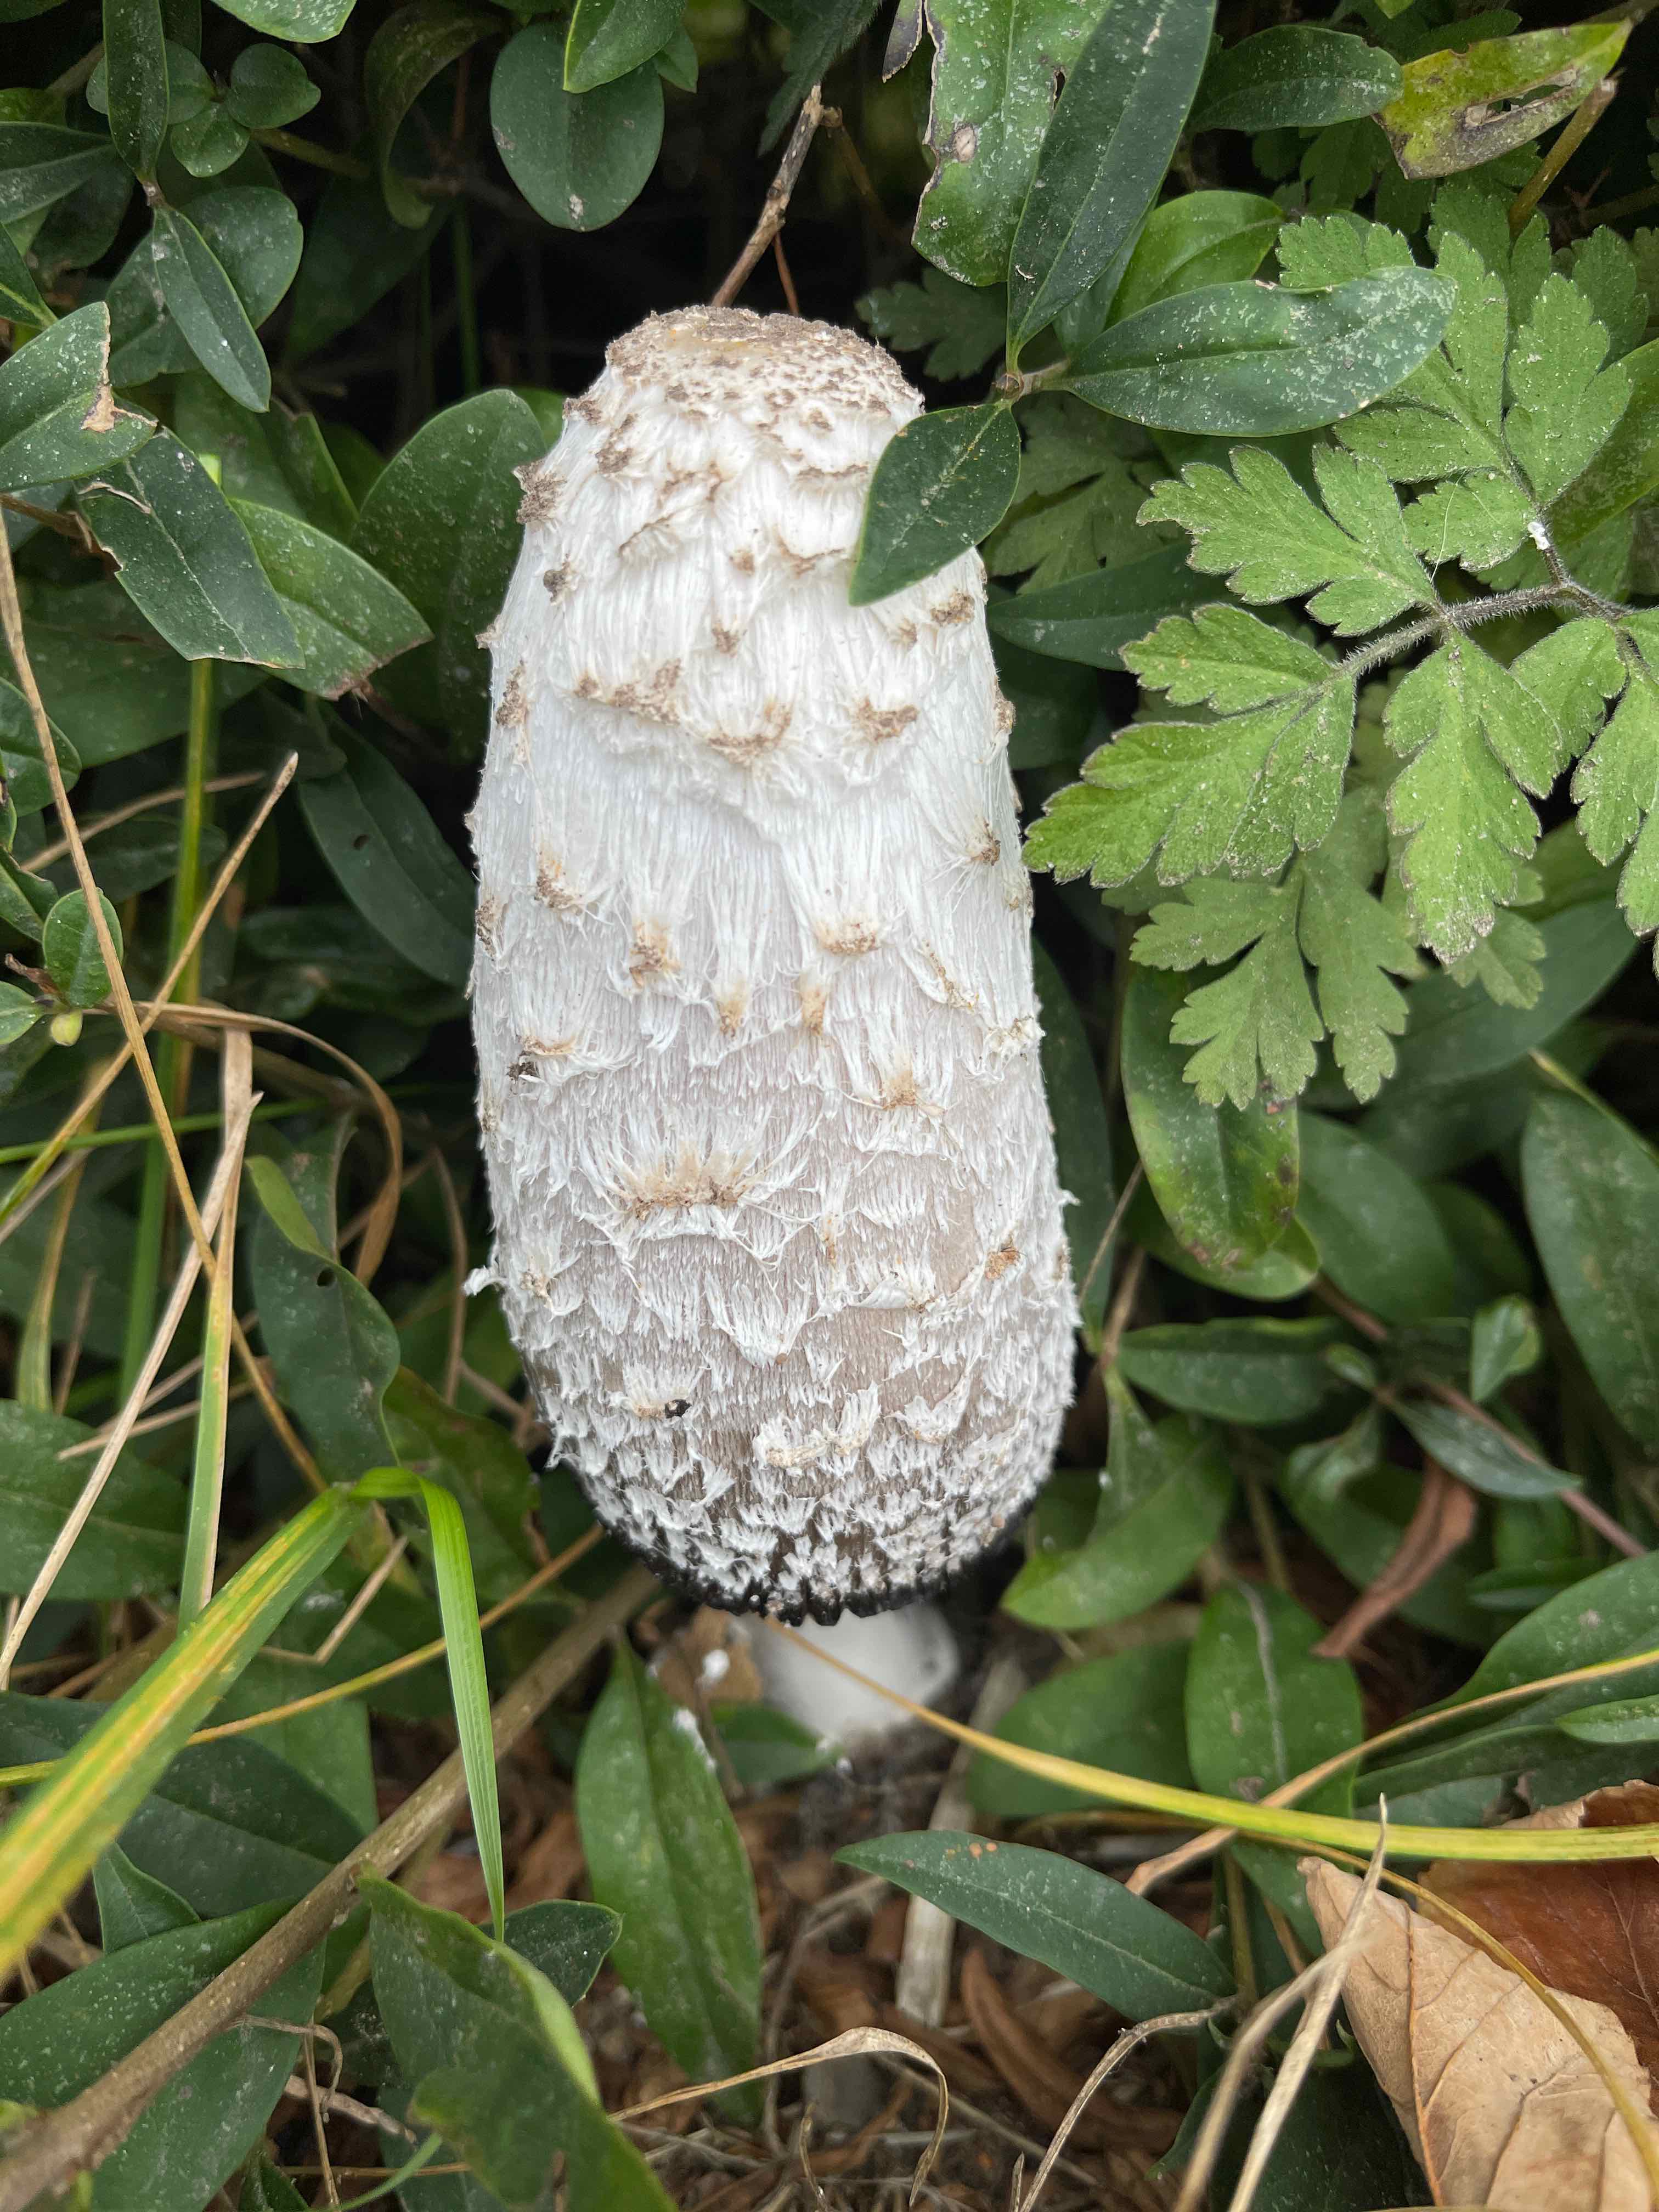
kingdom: Fungi
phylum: Basidiomycota
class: Agaricomycetes
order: Agaricales
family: Agaricaceae
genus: Coprinus
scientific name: Coprinus comatus
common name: stor parykhat
